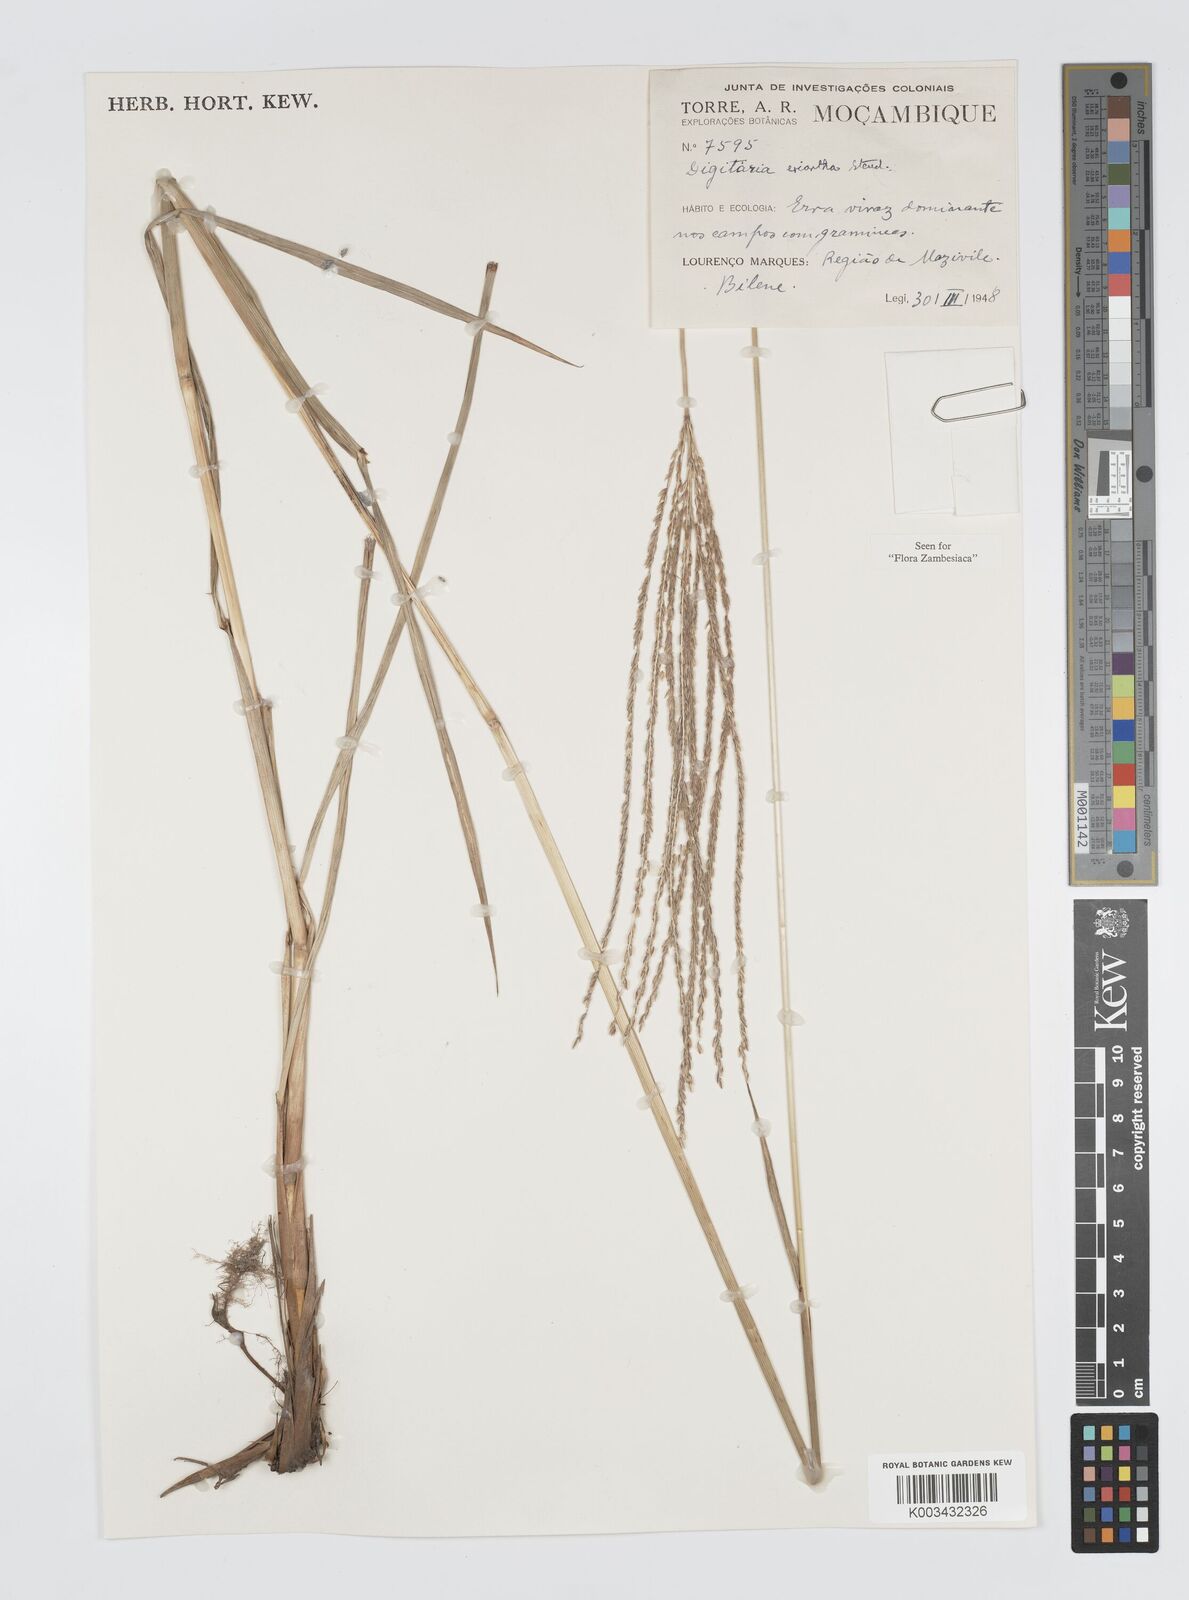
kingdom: Plantae
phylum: Tracheophyta
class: Liliopsida
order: Poales
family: Poaceae
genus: Digitaria
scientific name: Digitaria eriantha
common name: Digitgrass
